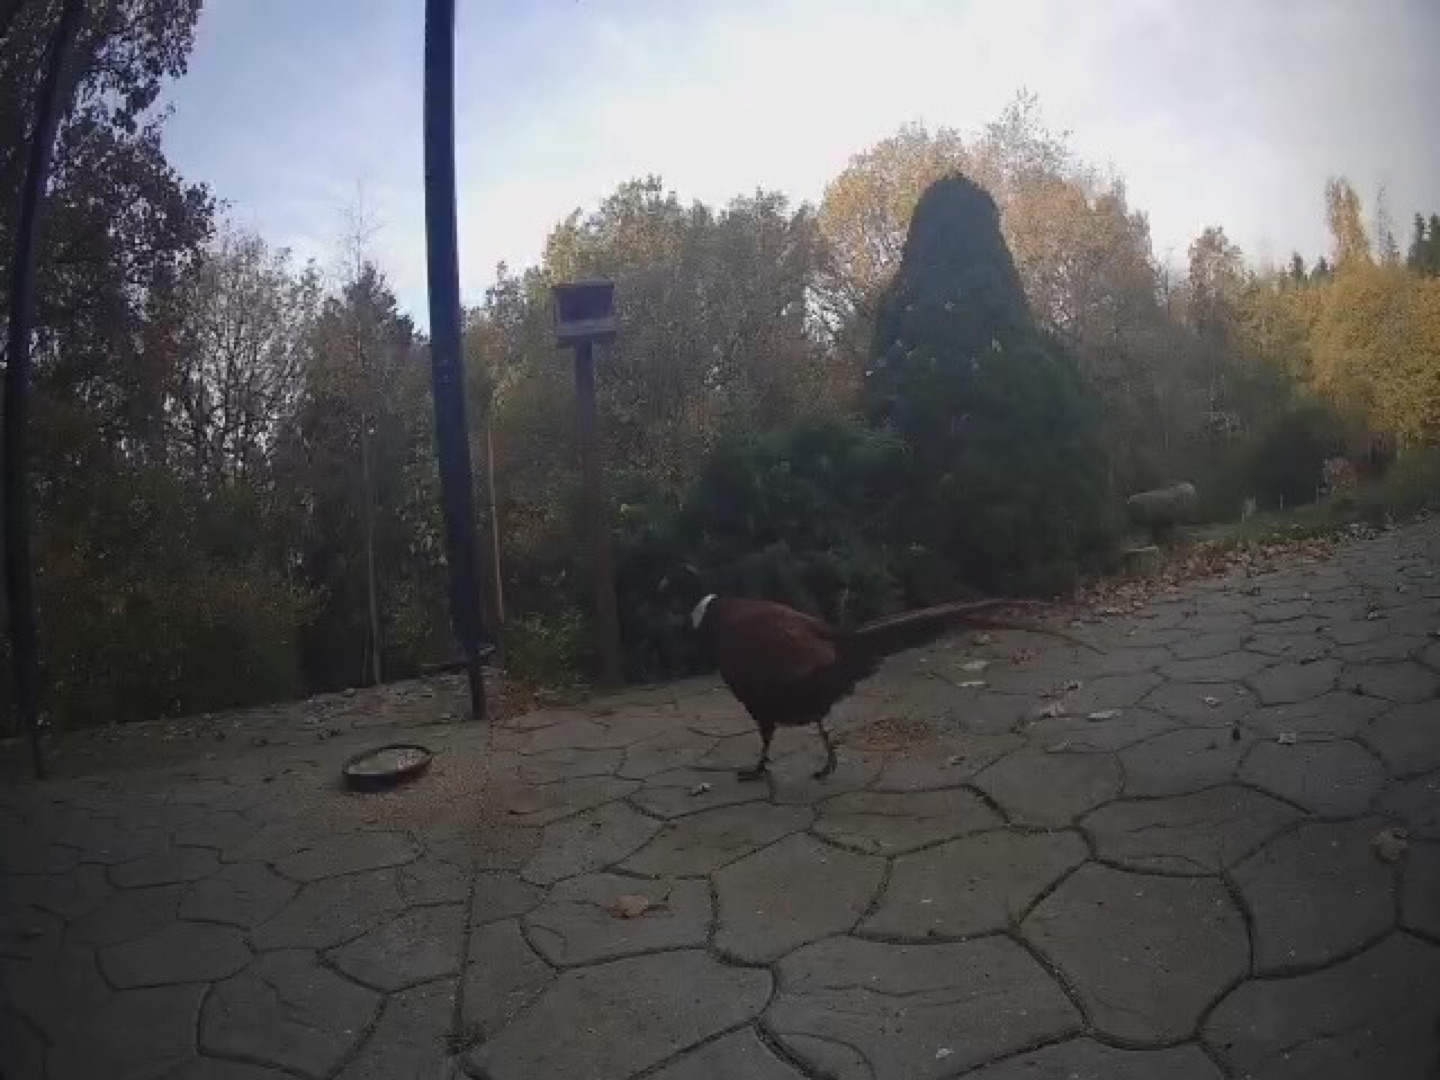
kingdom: Animalia
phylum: Chordata
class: Aves
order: Galliformes
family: Phasianidae
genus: Phasianus
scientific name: Phasianus colchicus
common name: Fasan
